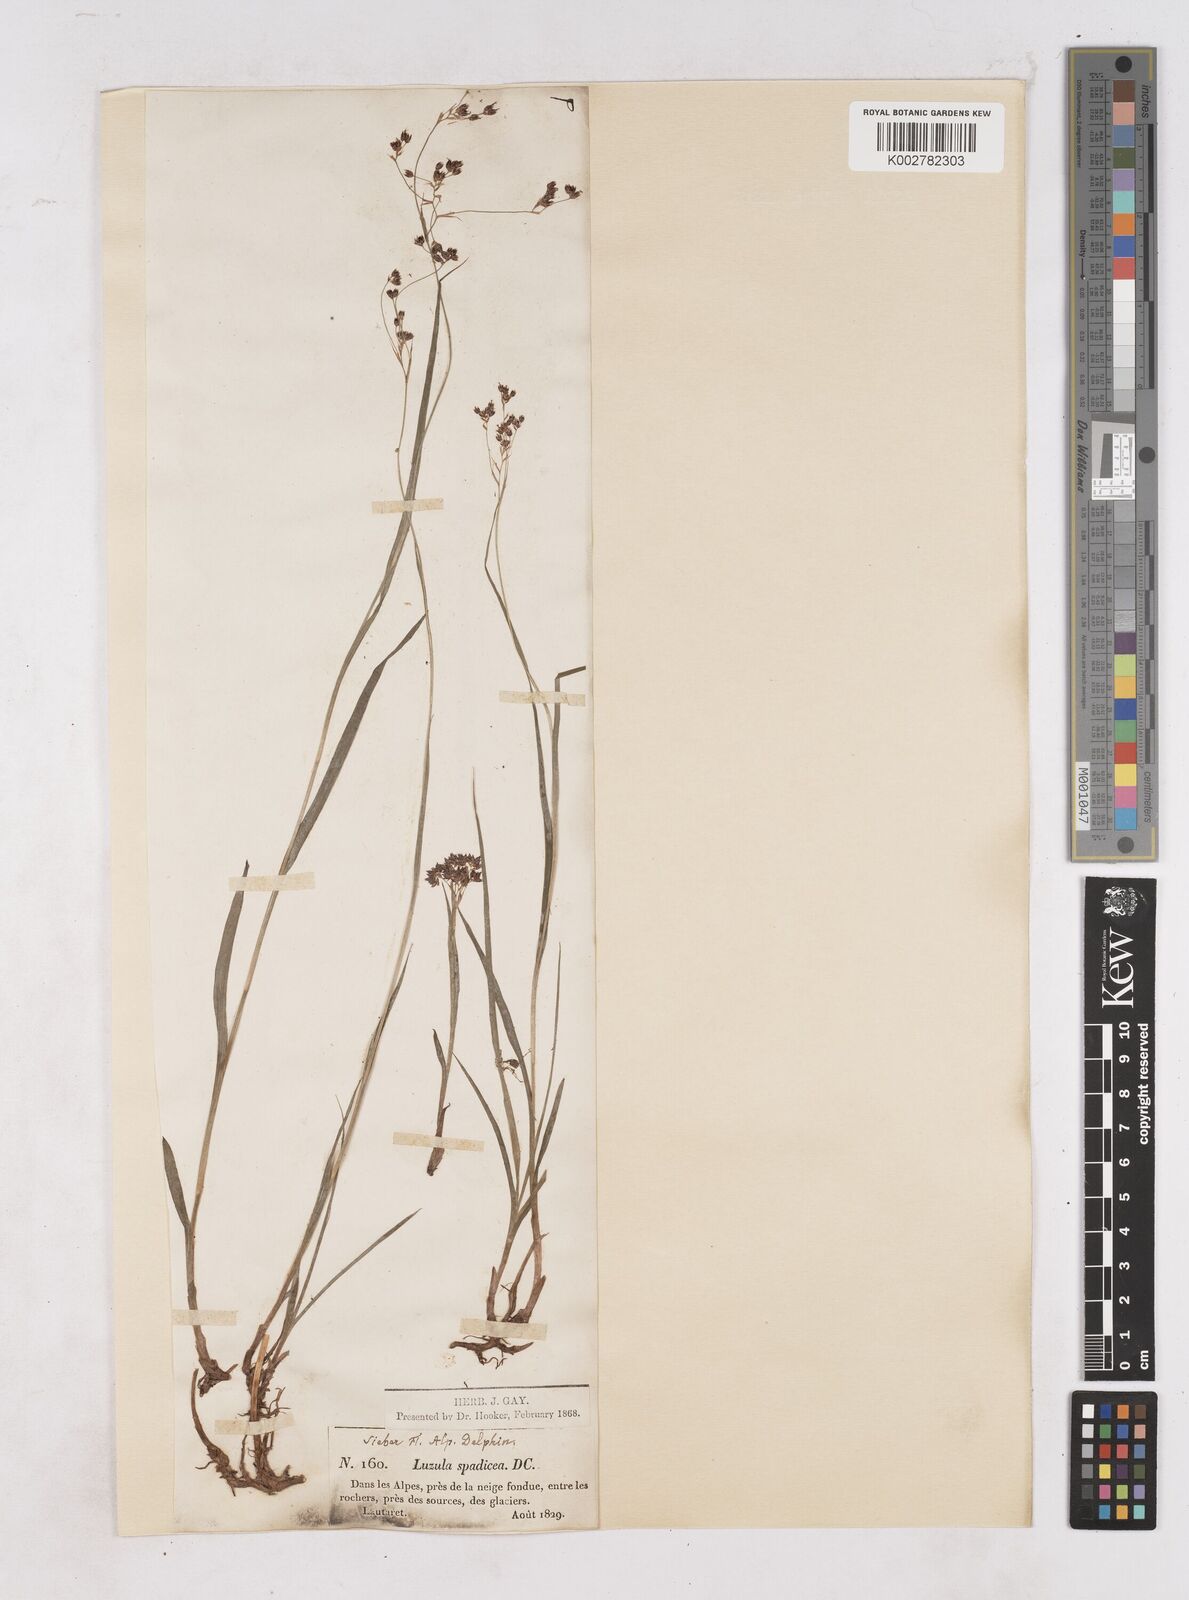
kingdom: Plantae
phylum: Tracheophyta
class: Liliopsida
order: Poales
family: Juncaceae
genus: Luzula
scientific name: Luzula alpinopilosa
